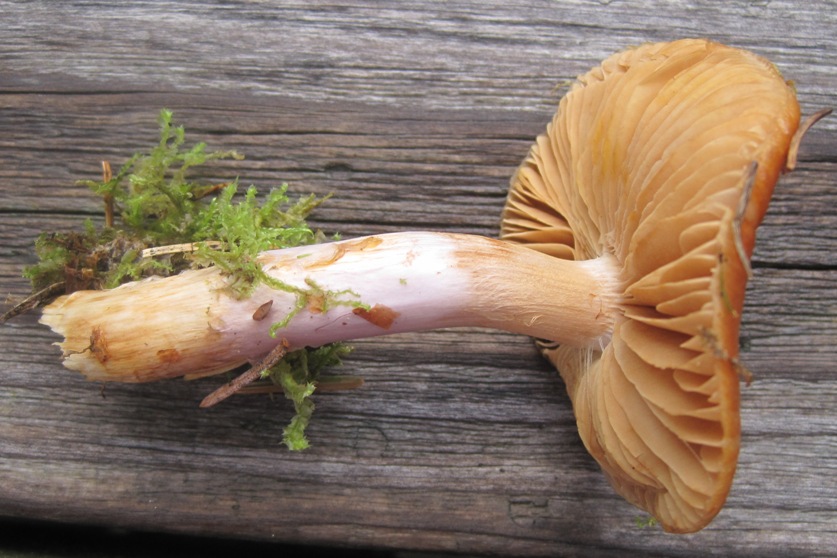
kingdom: Fungi
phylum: Basidiomycota
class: Agaricomycetes
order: Agaricales
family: Cortinariaceae
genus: Cortinarius
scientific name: Cortinarius collinitus
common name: spættet slørhat
